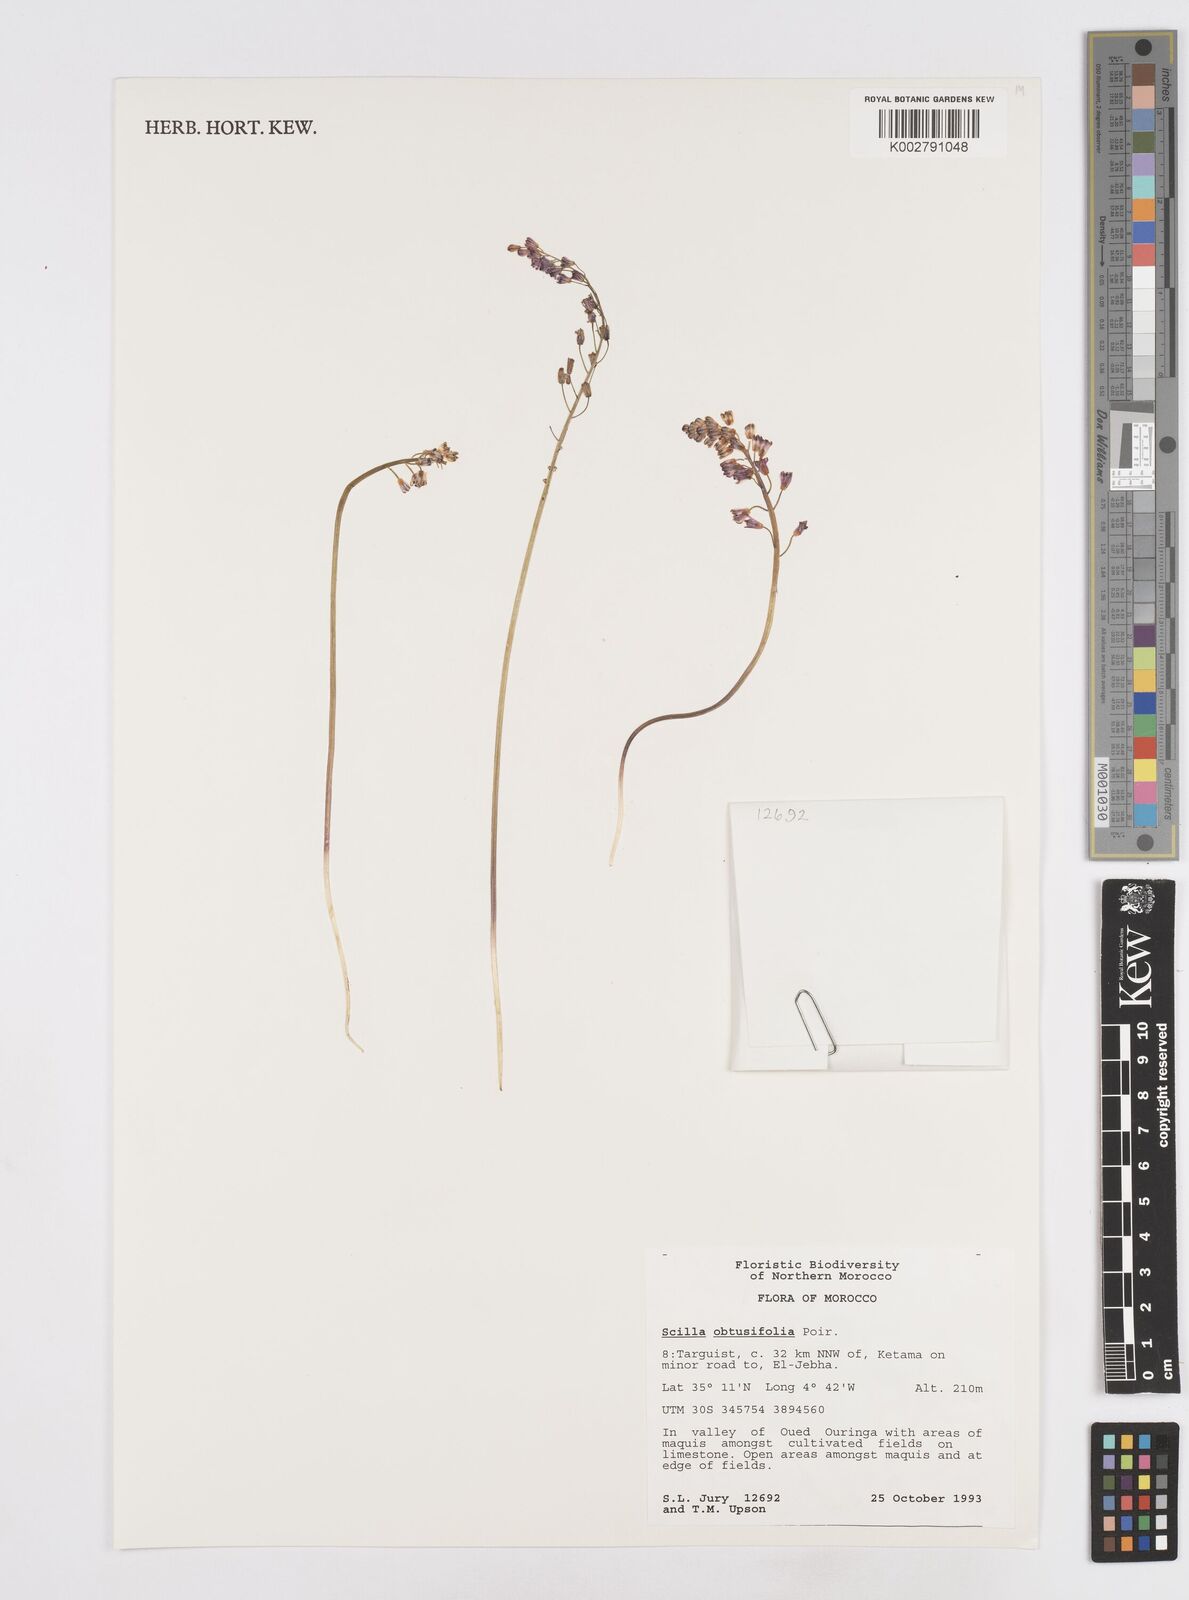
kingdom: Plantae
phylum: Tracheophyta
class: Liliopsida
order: Asparagales
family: Asparagaceae
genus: Prospero
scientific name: Prospero obtusifolium
